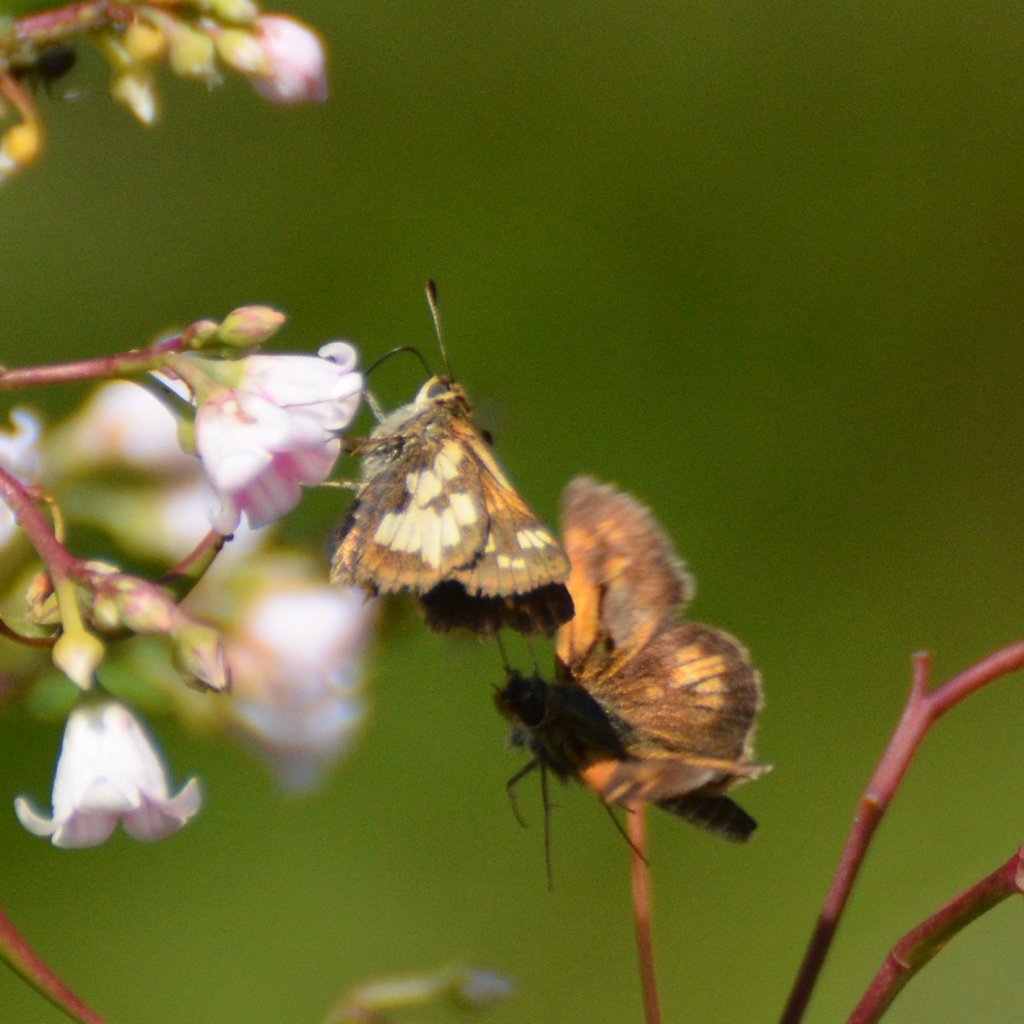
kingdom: Animalia
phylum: Arthropoda
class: Insecta
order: Lepidoptera
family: Hesperiidae
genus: Polites
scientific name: Polites coras
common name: Peck's Skipper
